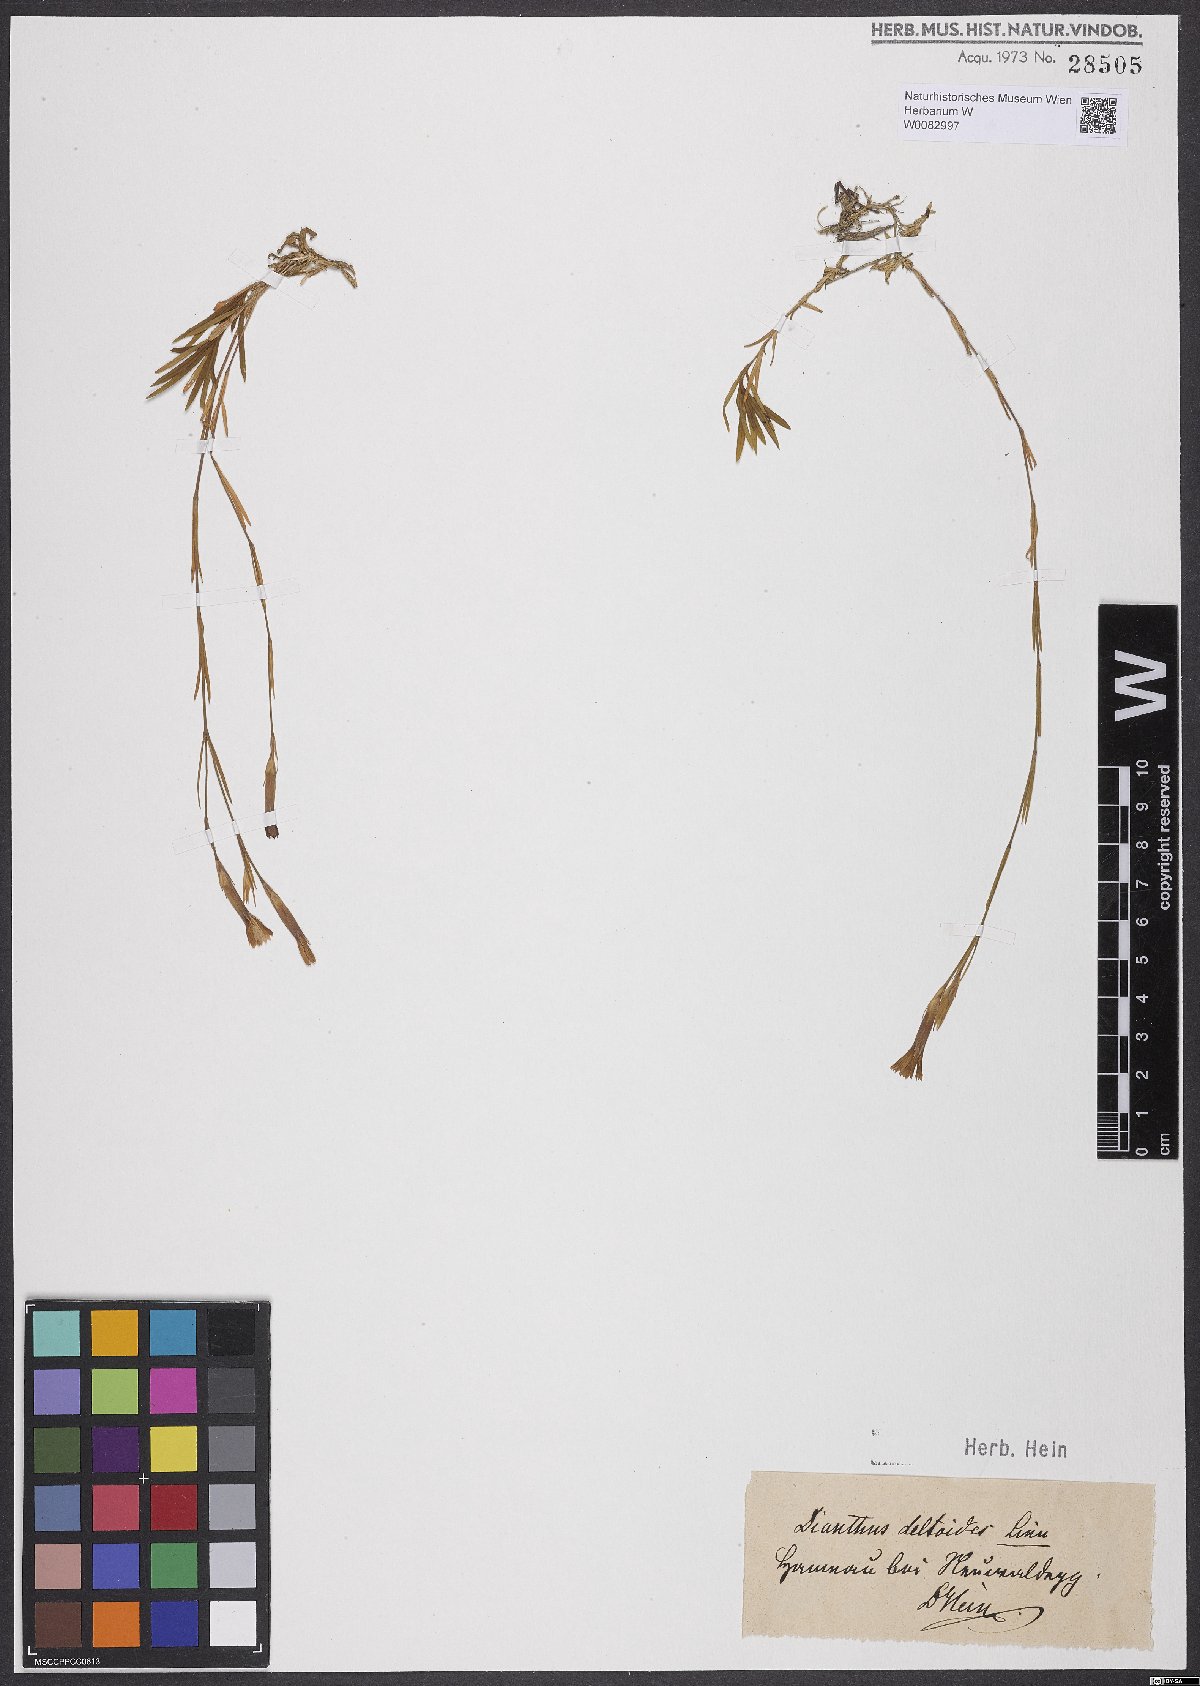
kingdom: Plantae
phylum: Tracheophyta
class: Magnoliopsida
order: Caryophyllales
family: Caryophyllaceae
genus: Dianthus
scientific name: Dianthus deltoides
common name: Maiden pink
